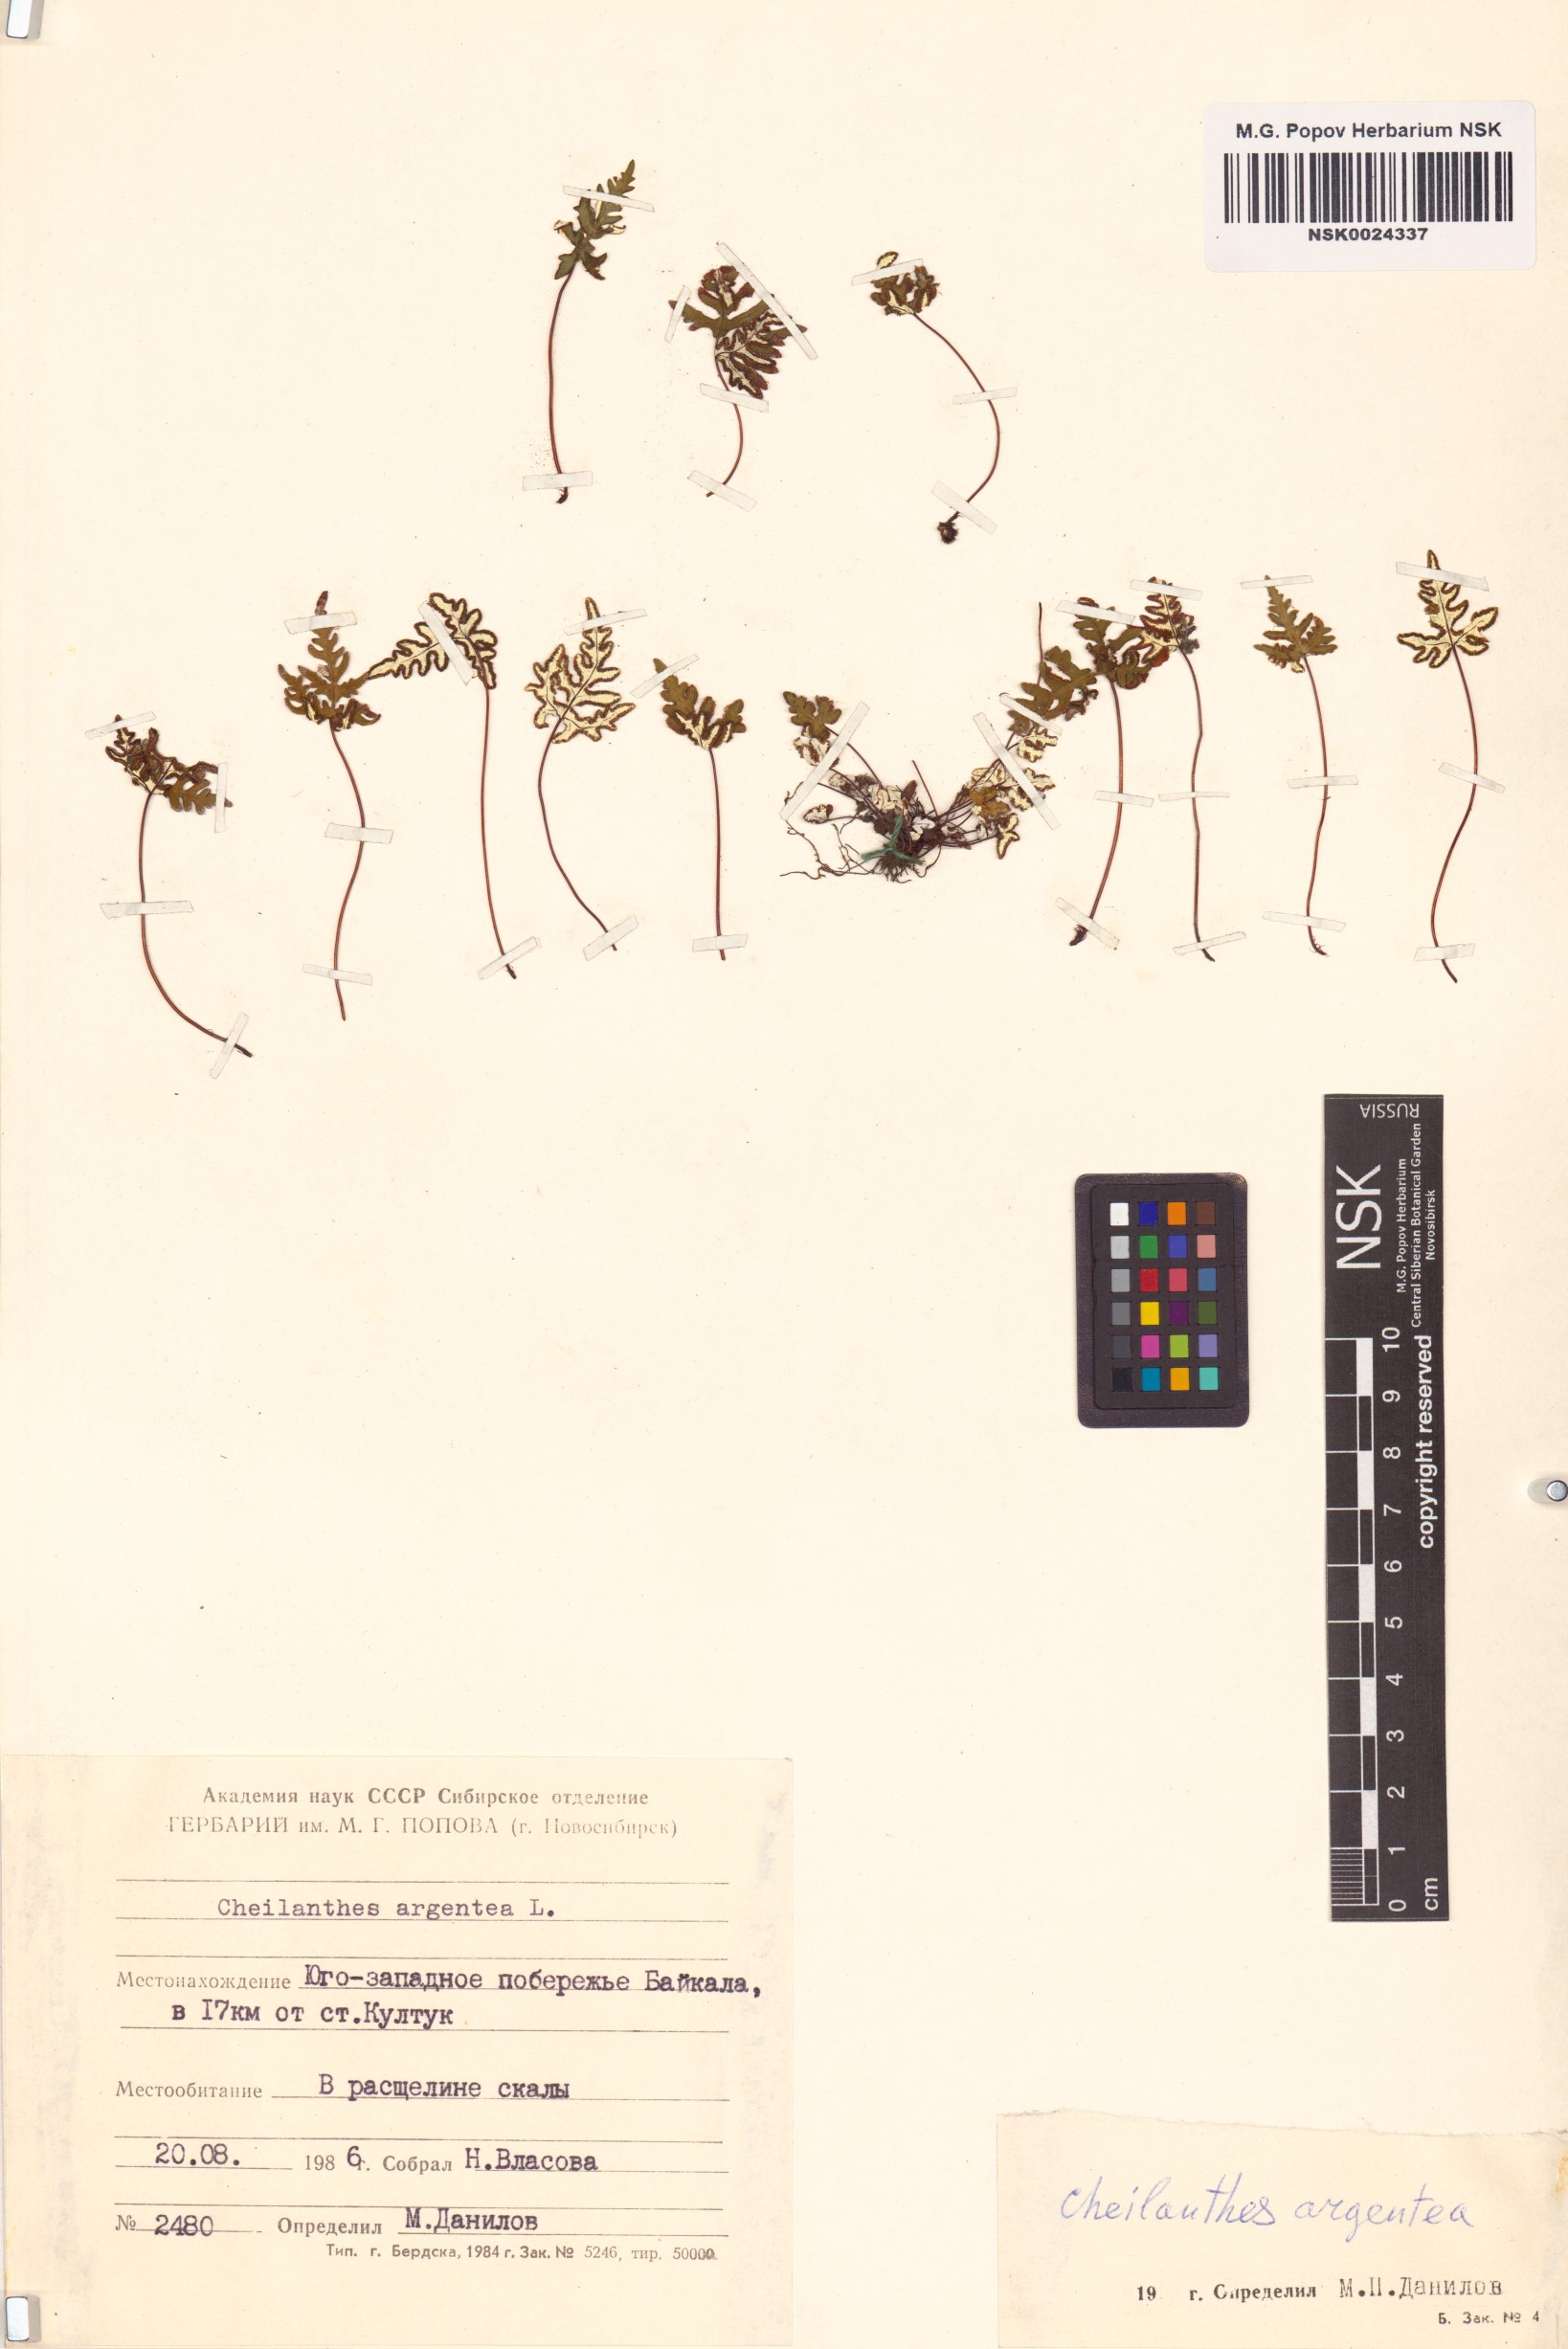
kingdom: Plantae
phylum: Tracheophyta
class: Polypodiopsida
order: Polypodiales
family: Pteridaceae
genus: Aleuritopteris
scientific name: Aleuritopteris argentea
